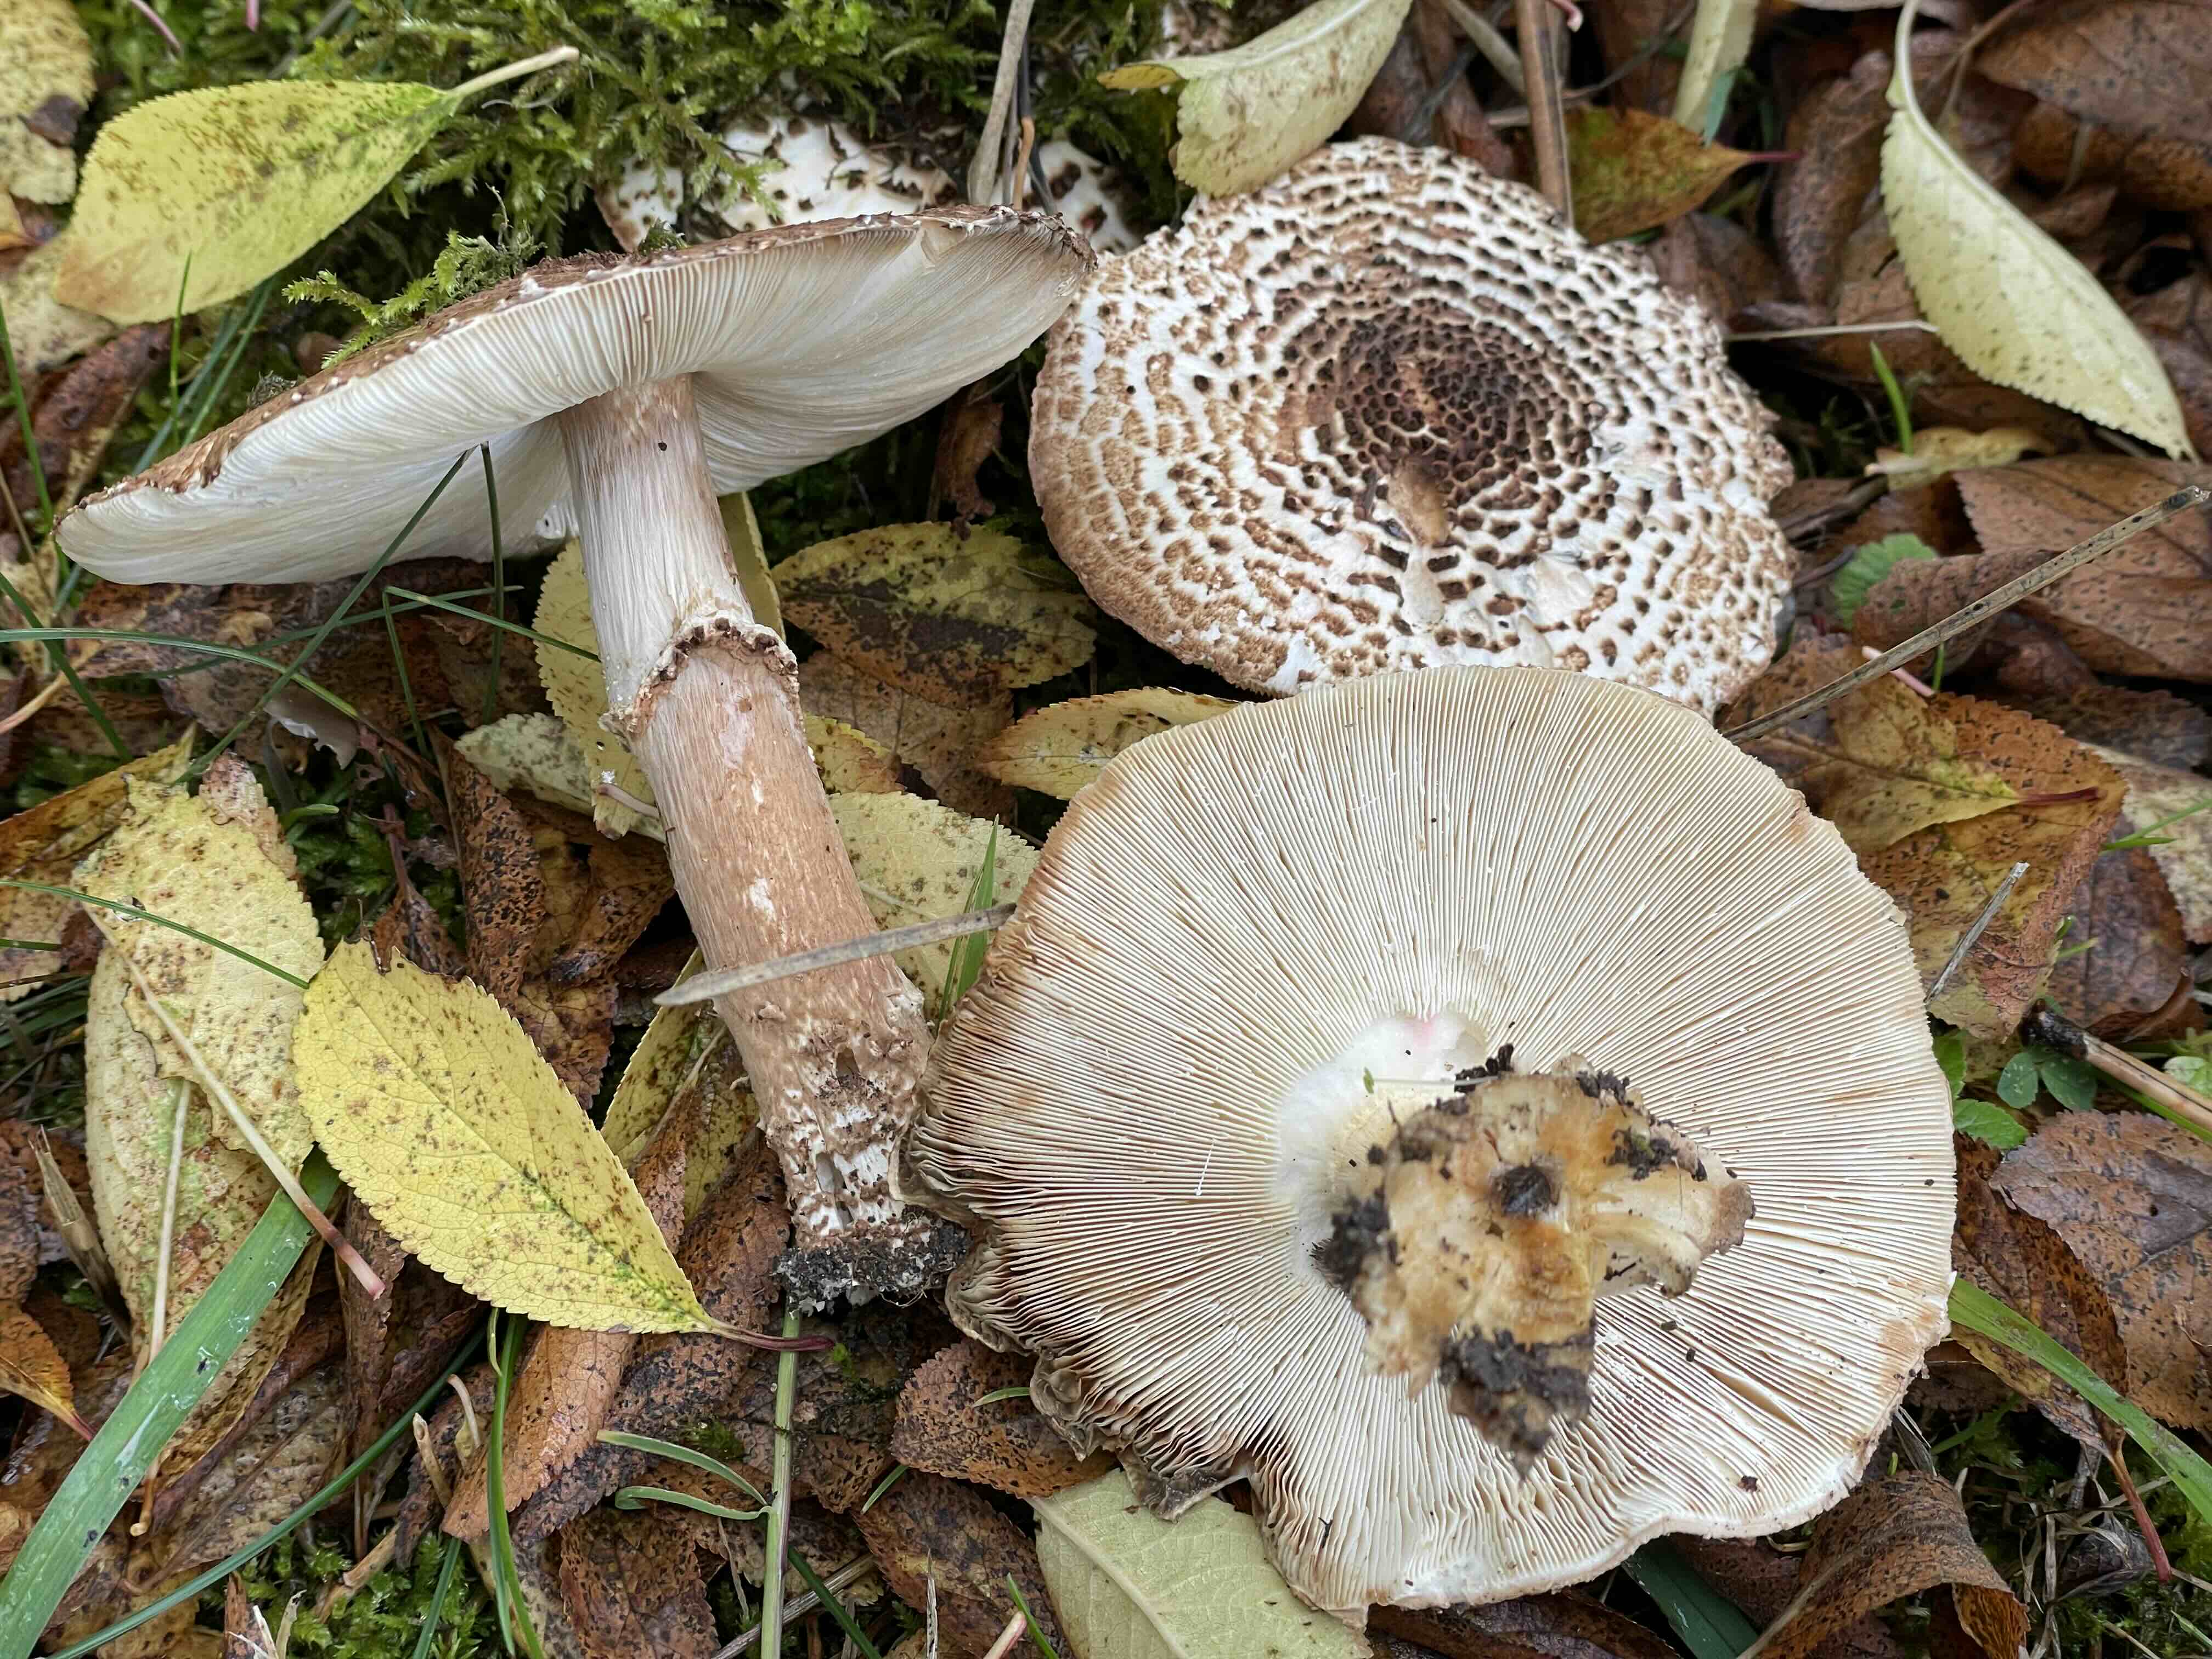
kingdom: Fungi
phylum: Basidiomycota
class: Agaricomycetes
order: Agaricales
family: Agaricaceae
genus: Echinoderma
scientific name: Echinoderma asperum
